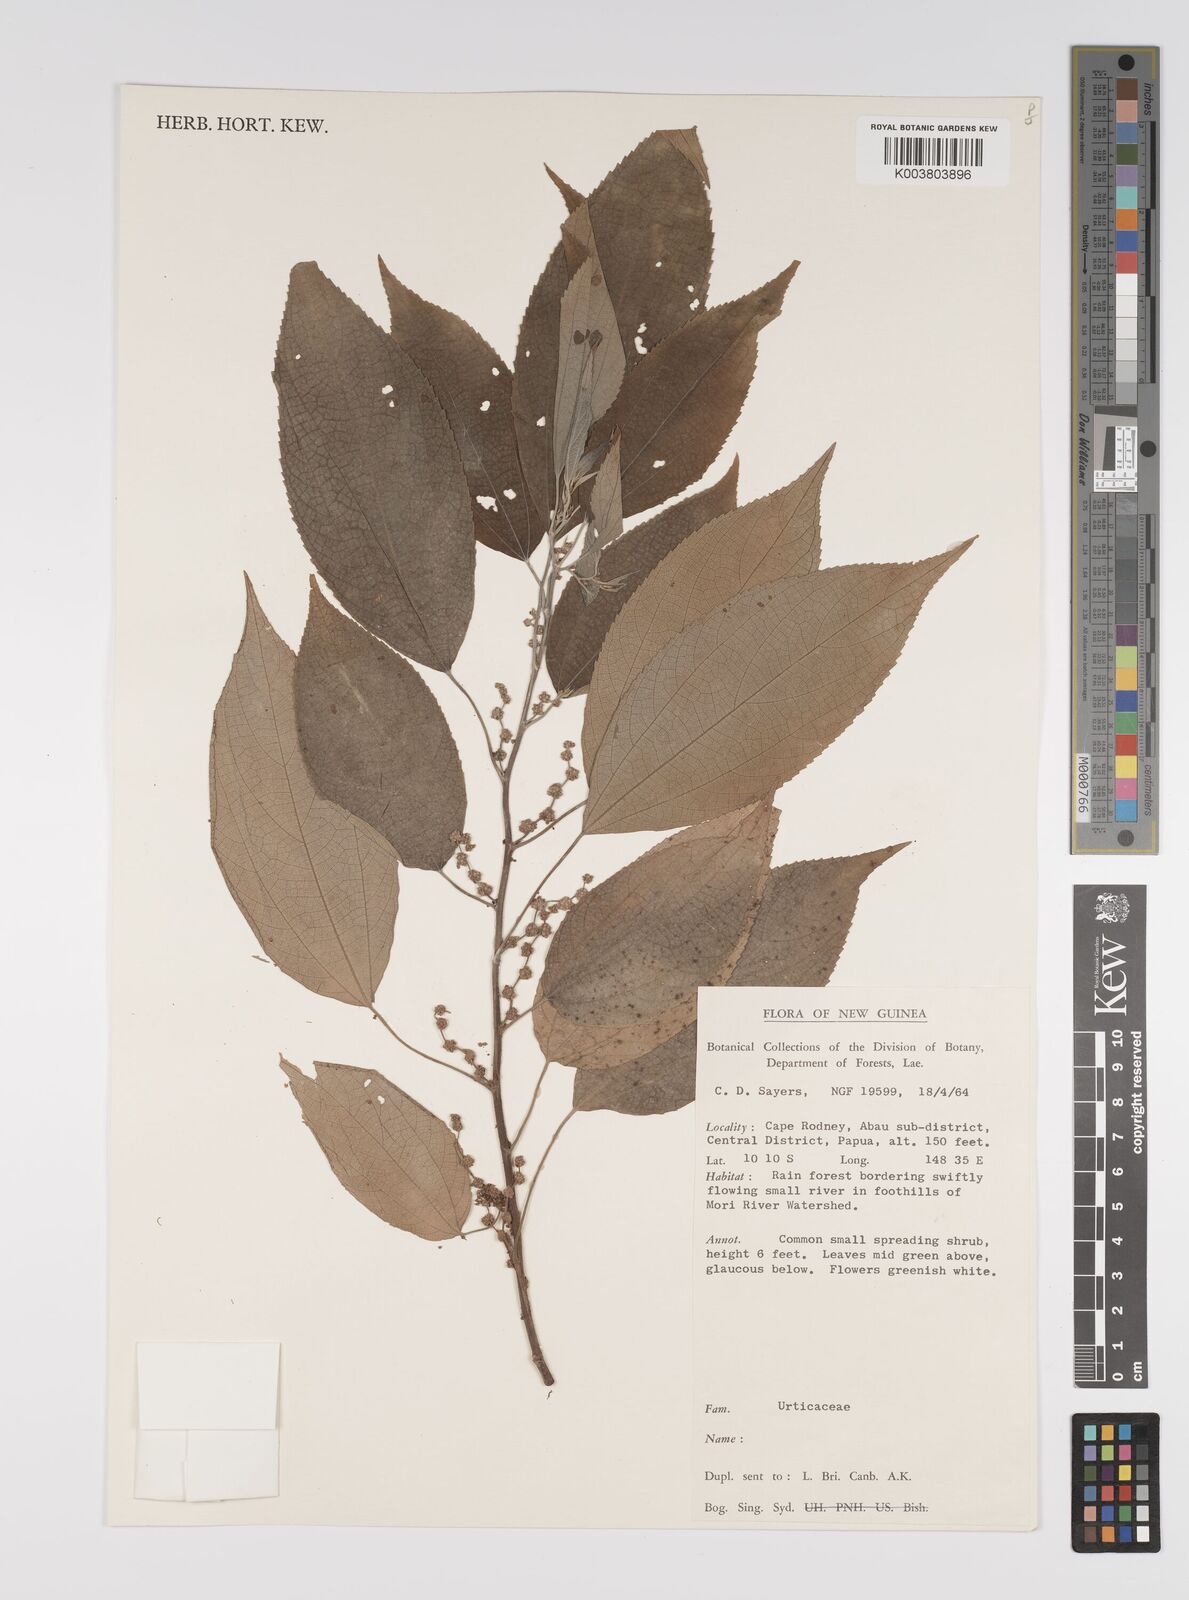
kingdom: Plantae
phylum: Tracheophyta
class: Magnoliopsida
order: Rosales
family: Urticaceae
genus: Pipturus
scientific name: Pipturus argenteus
